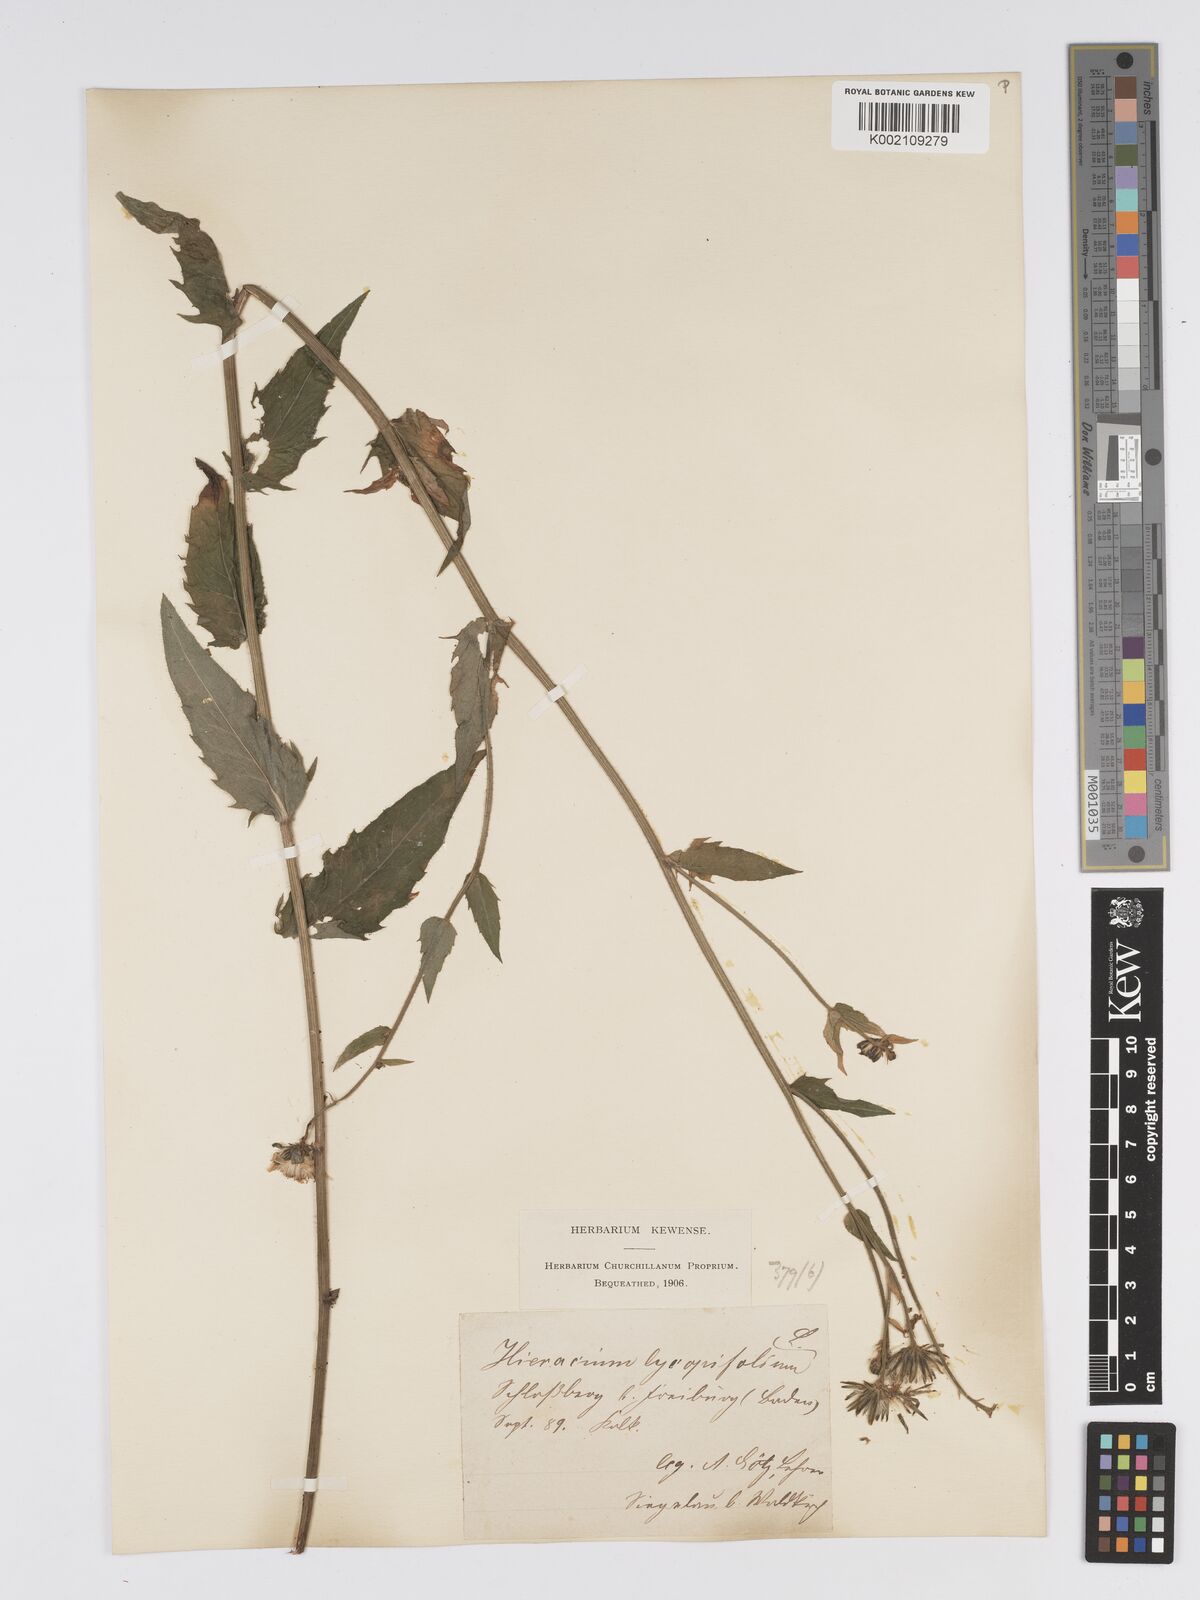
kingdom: Plantae
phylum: Tracheophyta
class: Magnoliopsida
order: Asterales
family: Asteraceae
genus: Hieracium
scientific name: Hieracium lycopifolium
